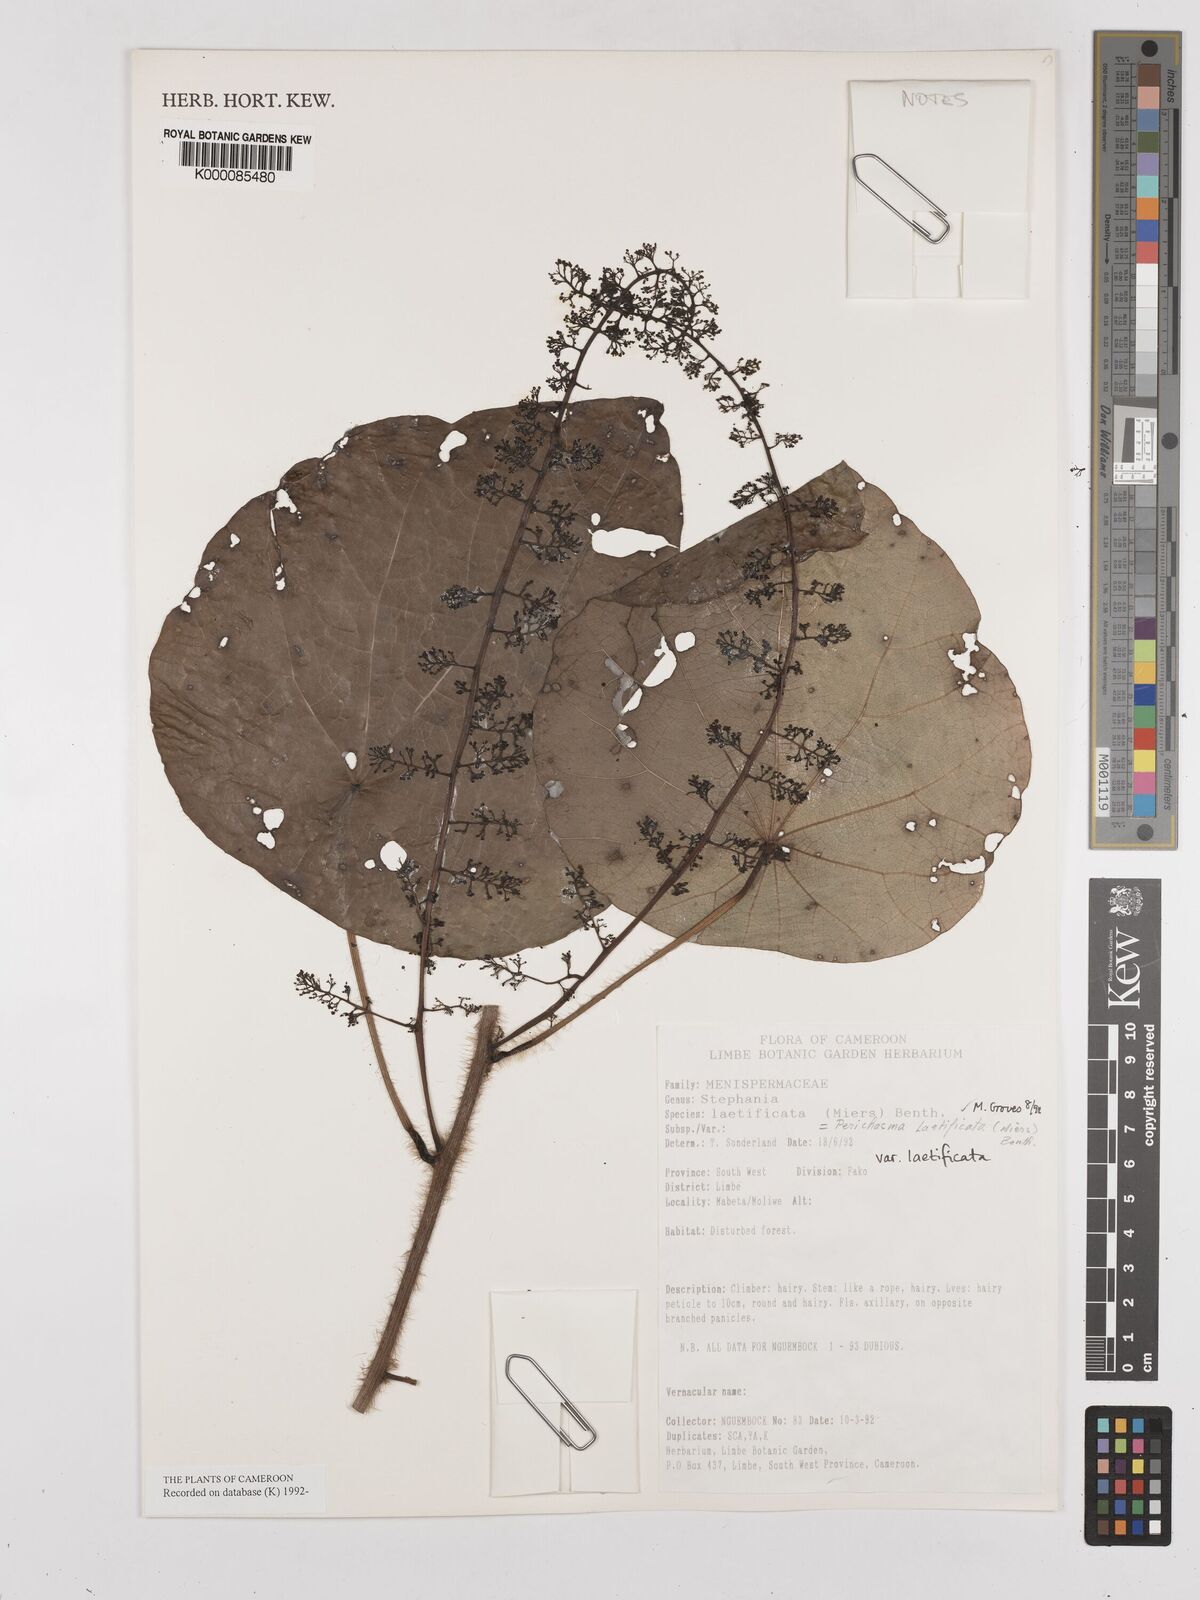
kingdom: Plantae
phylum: Tracheophyta
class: Magnoliopsida
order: Ranunculales
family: Menispermaceae
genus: Perichasma
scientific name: Perichasma laetificata
